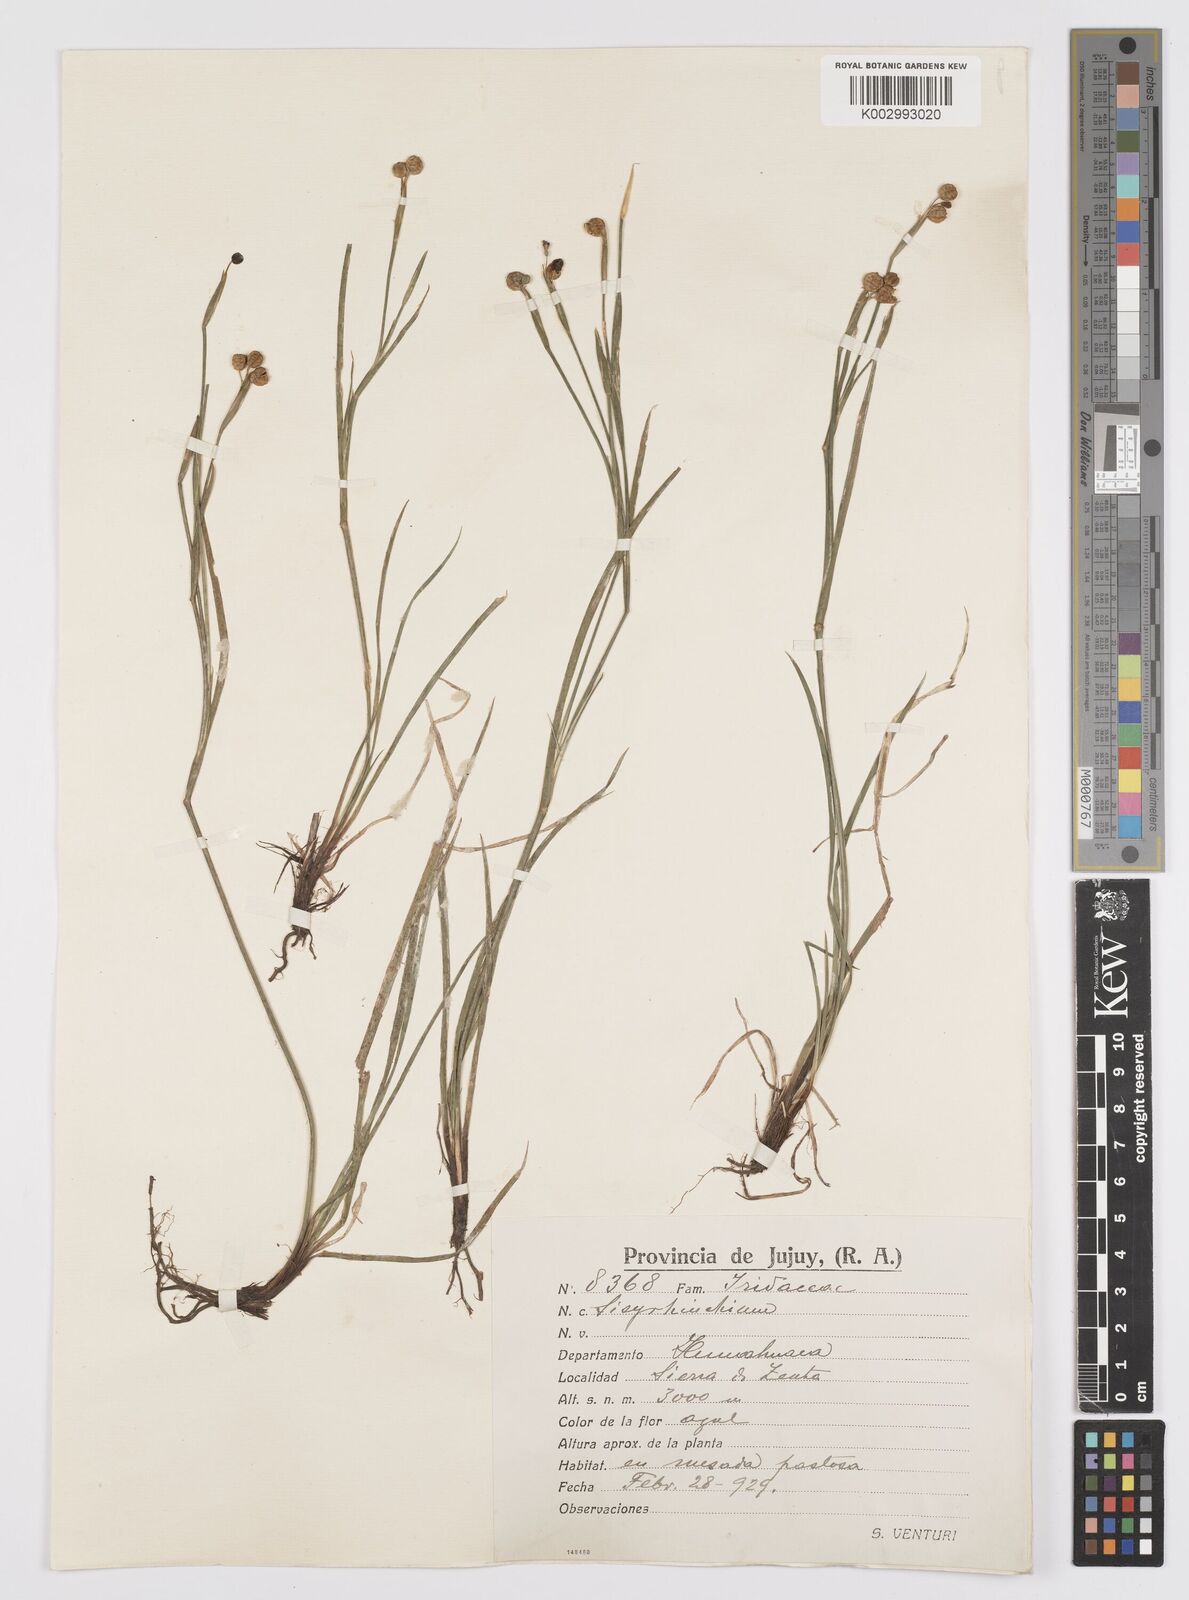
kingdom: Plantae
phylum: Tracheophyta
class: Liliopsida
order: Asparagales
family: Iridaceae
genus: Sisyrinchium
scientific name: Sisyrinchium
